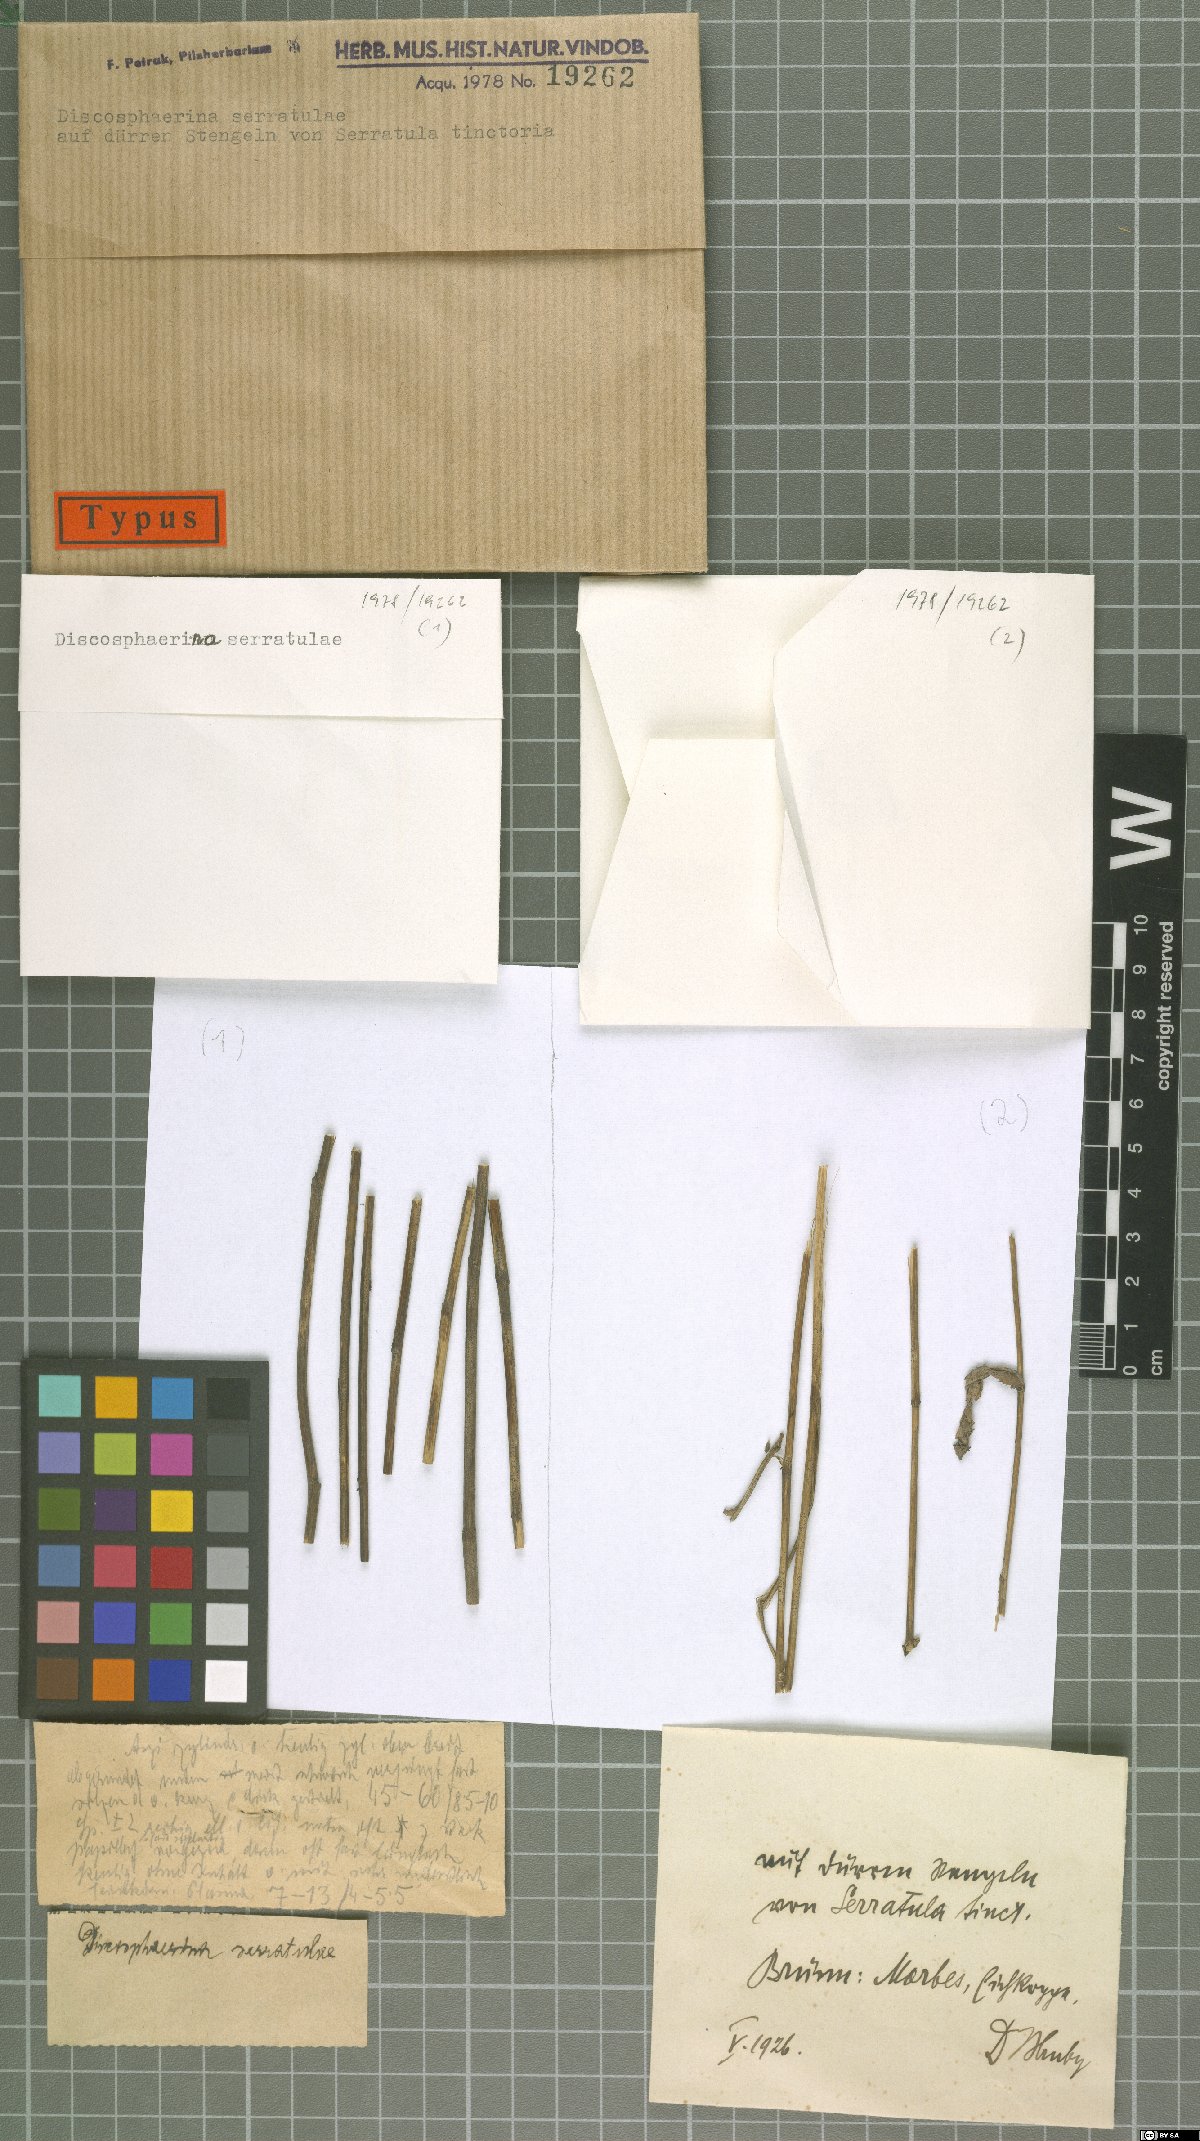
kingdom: Fungi
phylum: Ascomycota
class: Sordariomycetes
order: Xylariales
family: Hyponectriaceae
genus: Discosphaerina
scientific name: Discosphaerina serratulae
